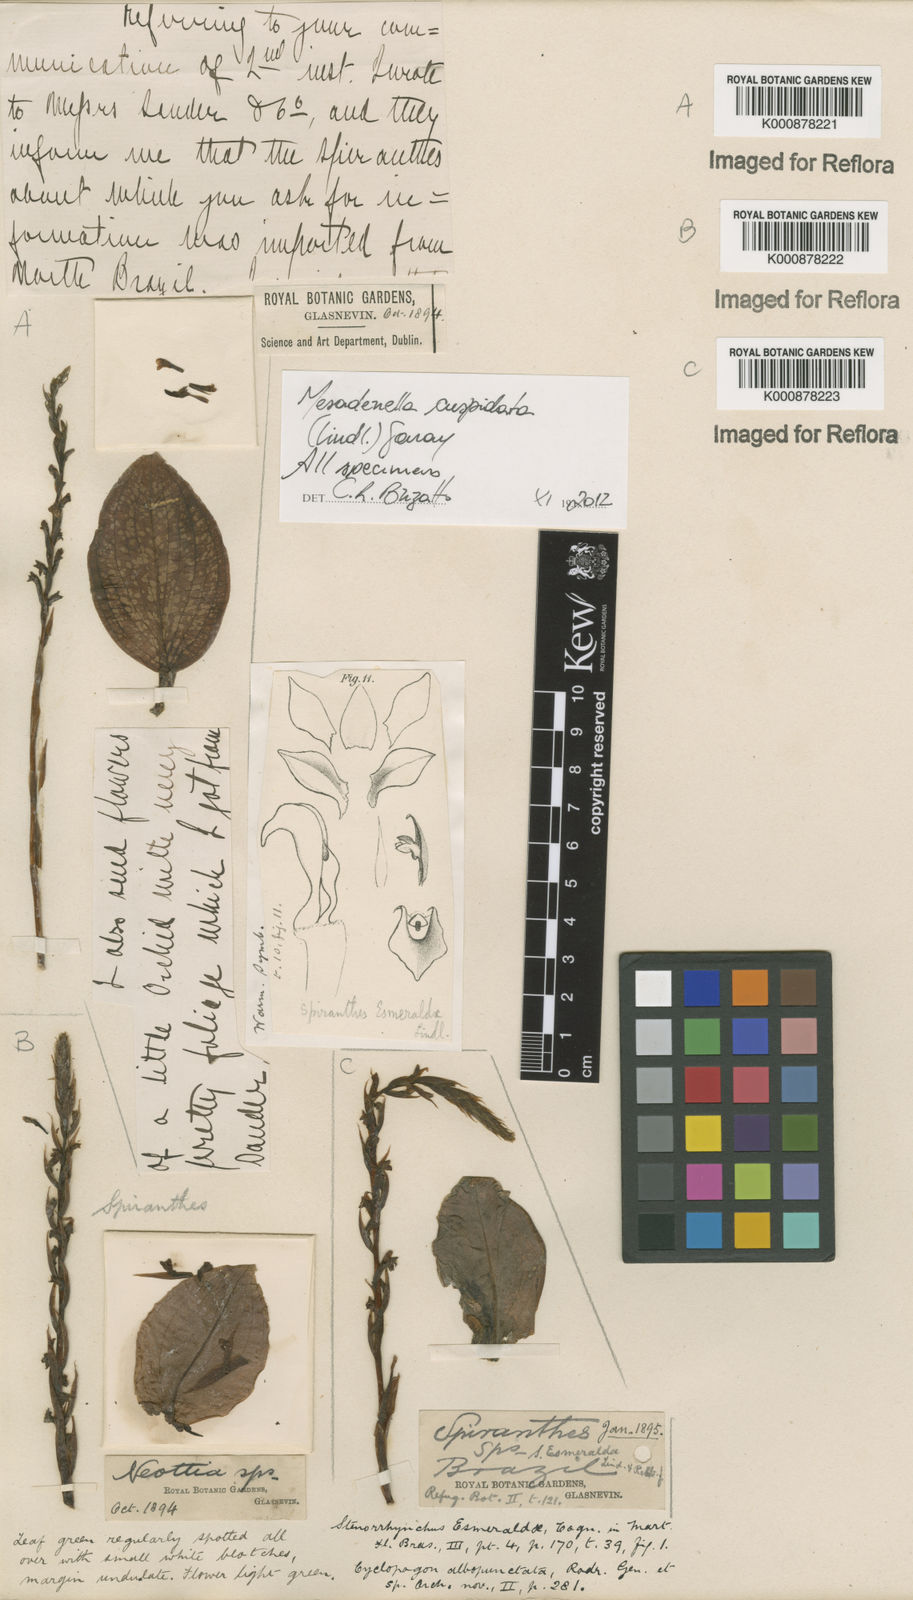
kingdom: Plantae
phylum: Tracheophyta
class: Liliopsida
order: Asparagales
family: Orchidaceae
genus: Mesadenella
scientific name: Mesadenella cuspidata
